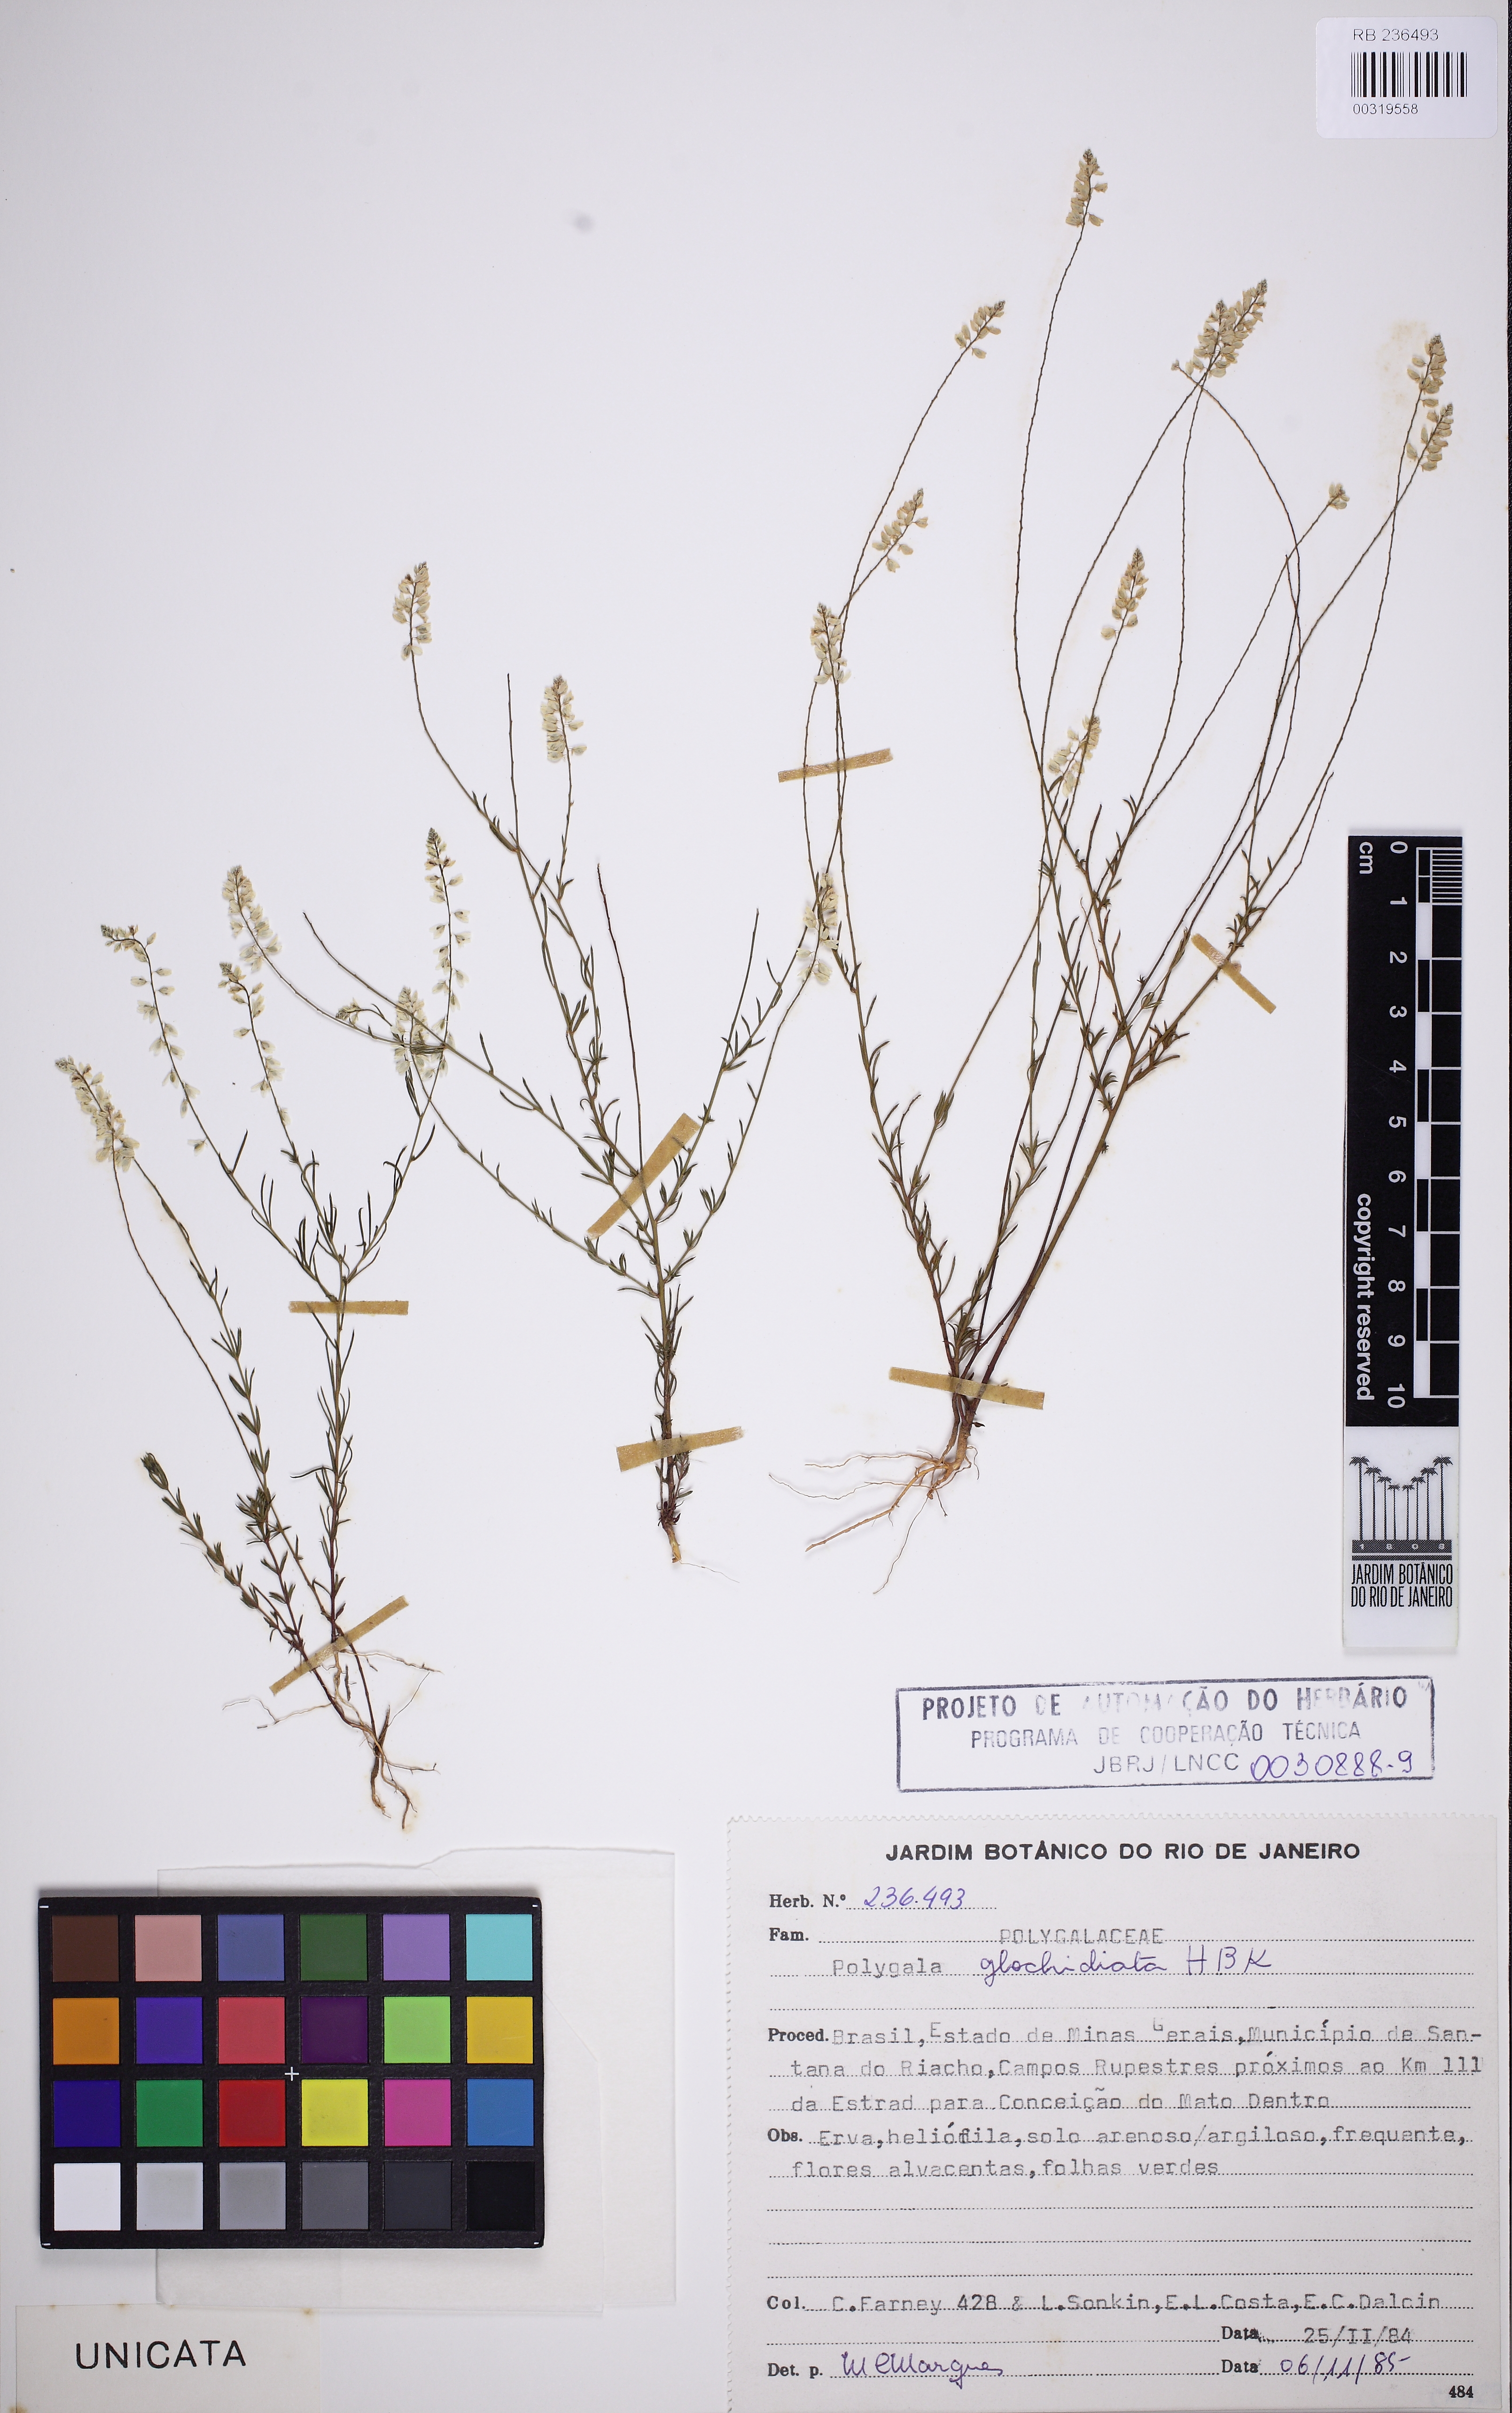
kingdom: Plantae
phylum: Tracheophyta
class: Magnoliopsida
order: Fabales
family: Polygalaceae
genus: Polygala
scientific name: Polygala glochidiata
